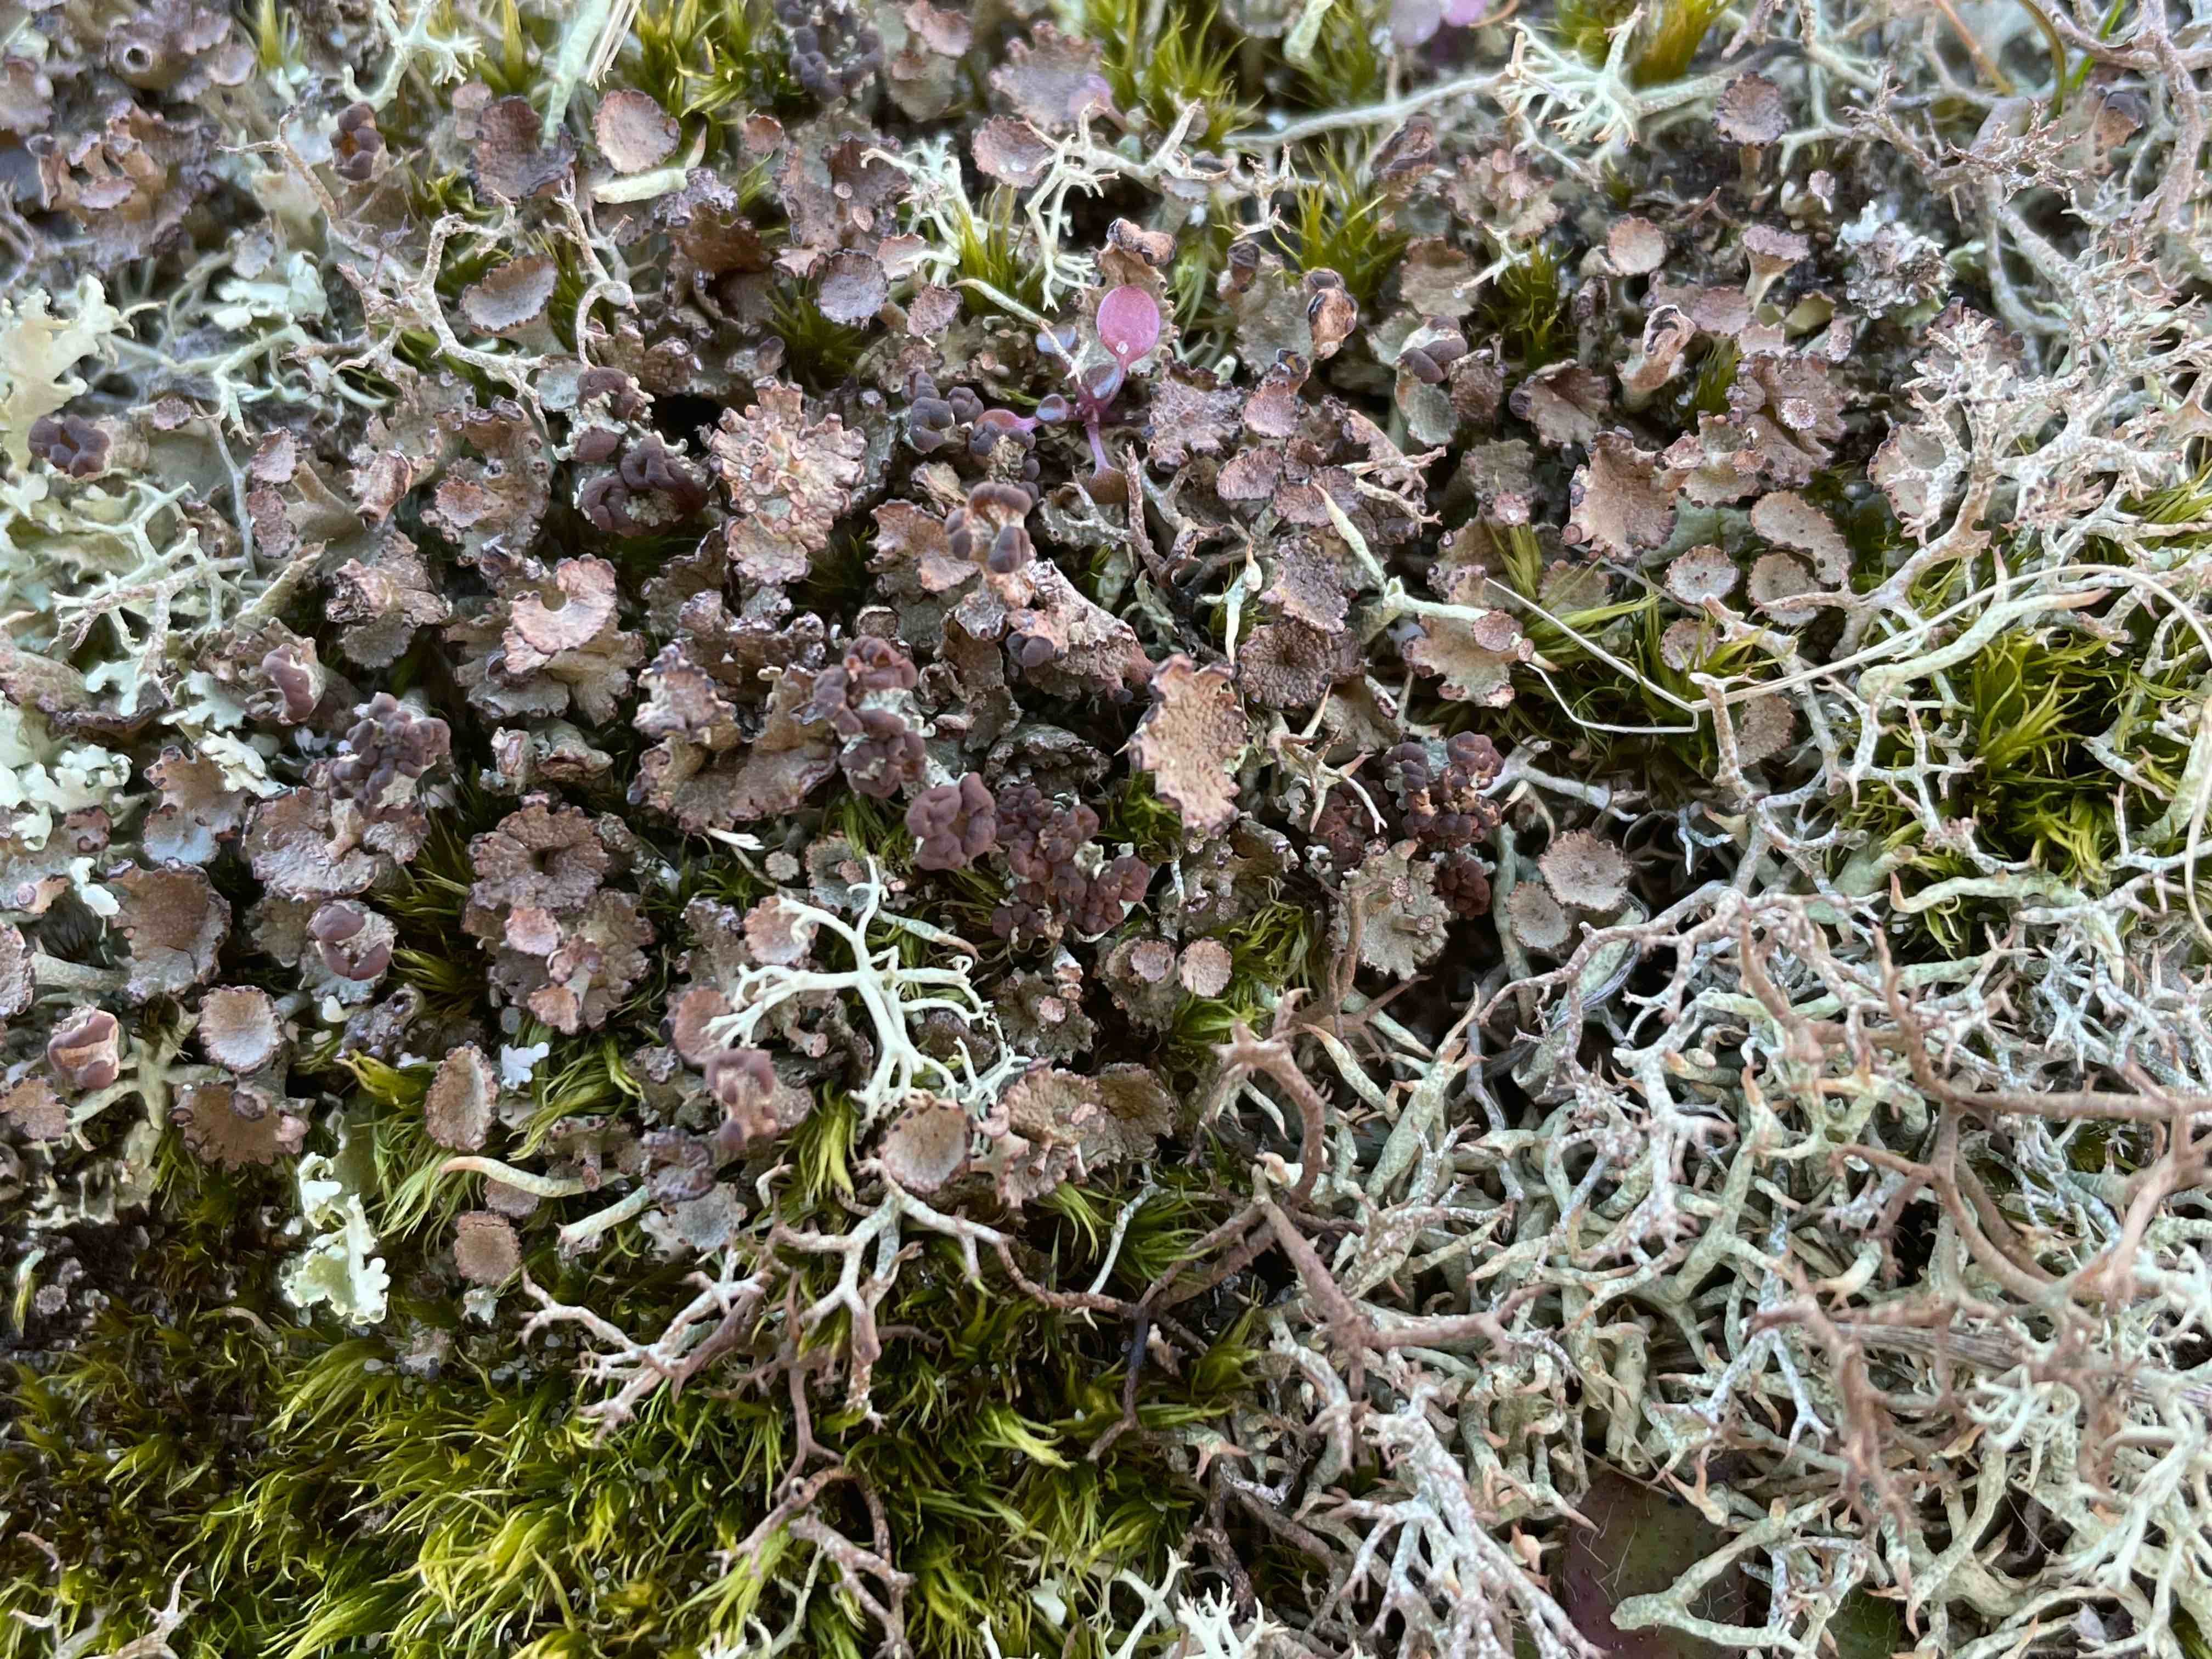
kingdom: Fungi
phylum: Ascomycota
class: Lecanoromycetes
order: Lecanorales
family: Cladoniaceae
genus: Cladonia
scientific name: Cladonia cervicornis
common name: gevir-bægerlav
